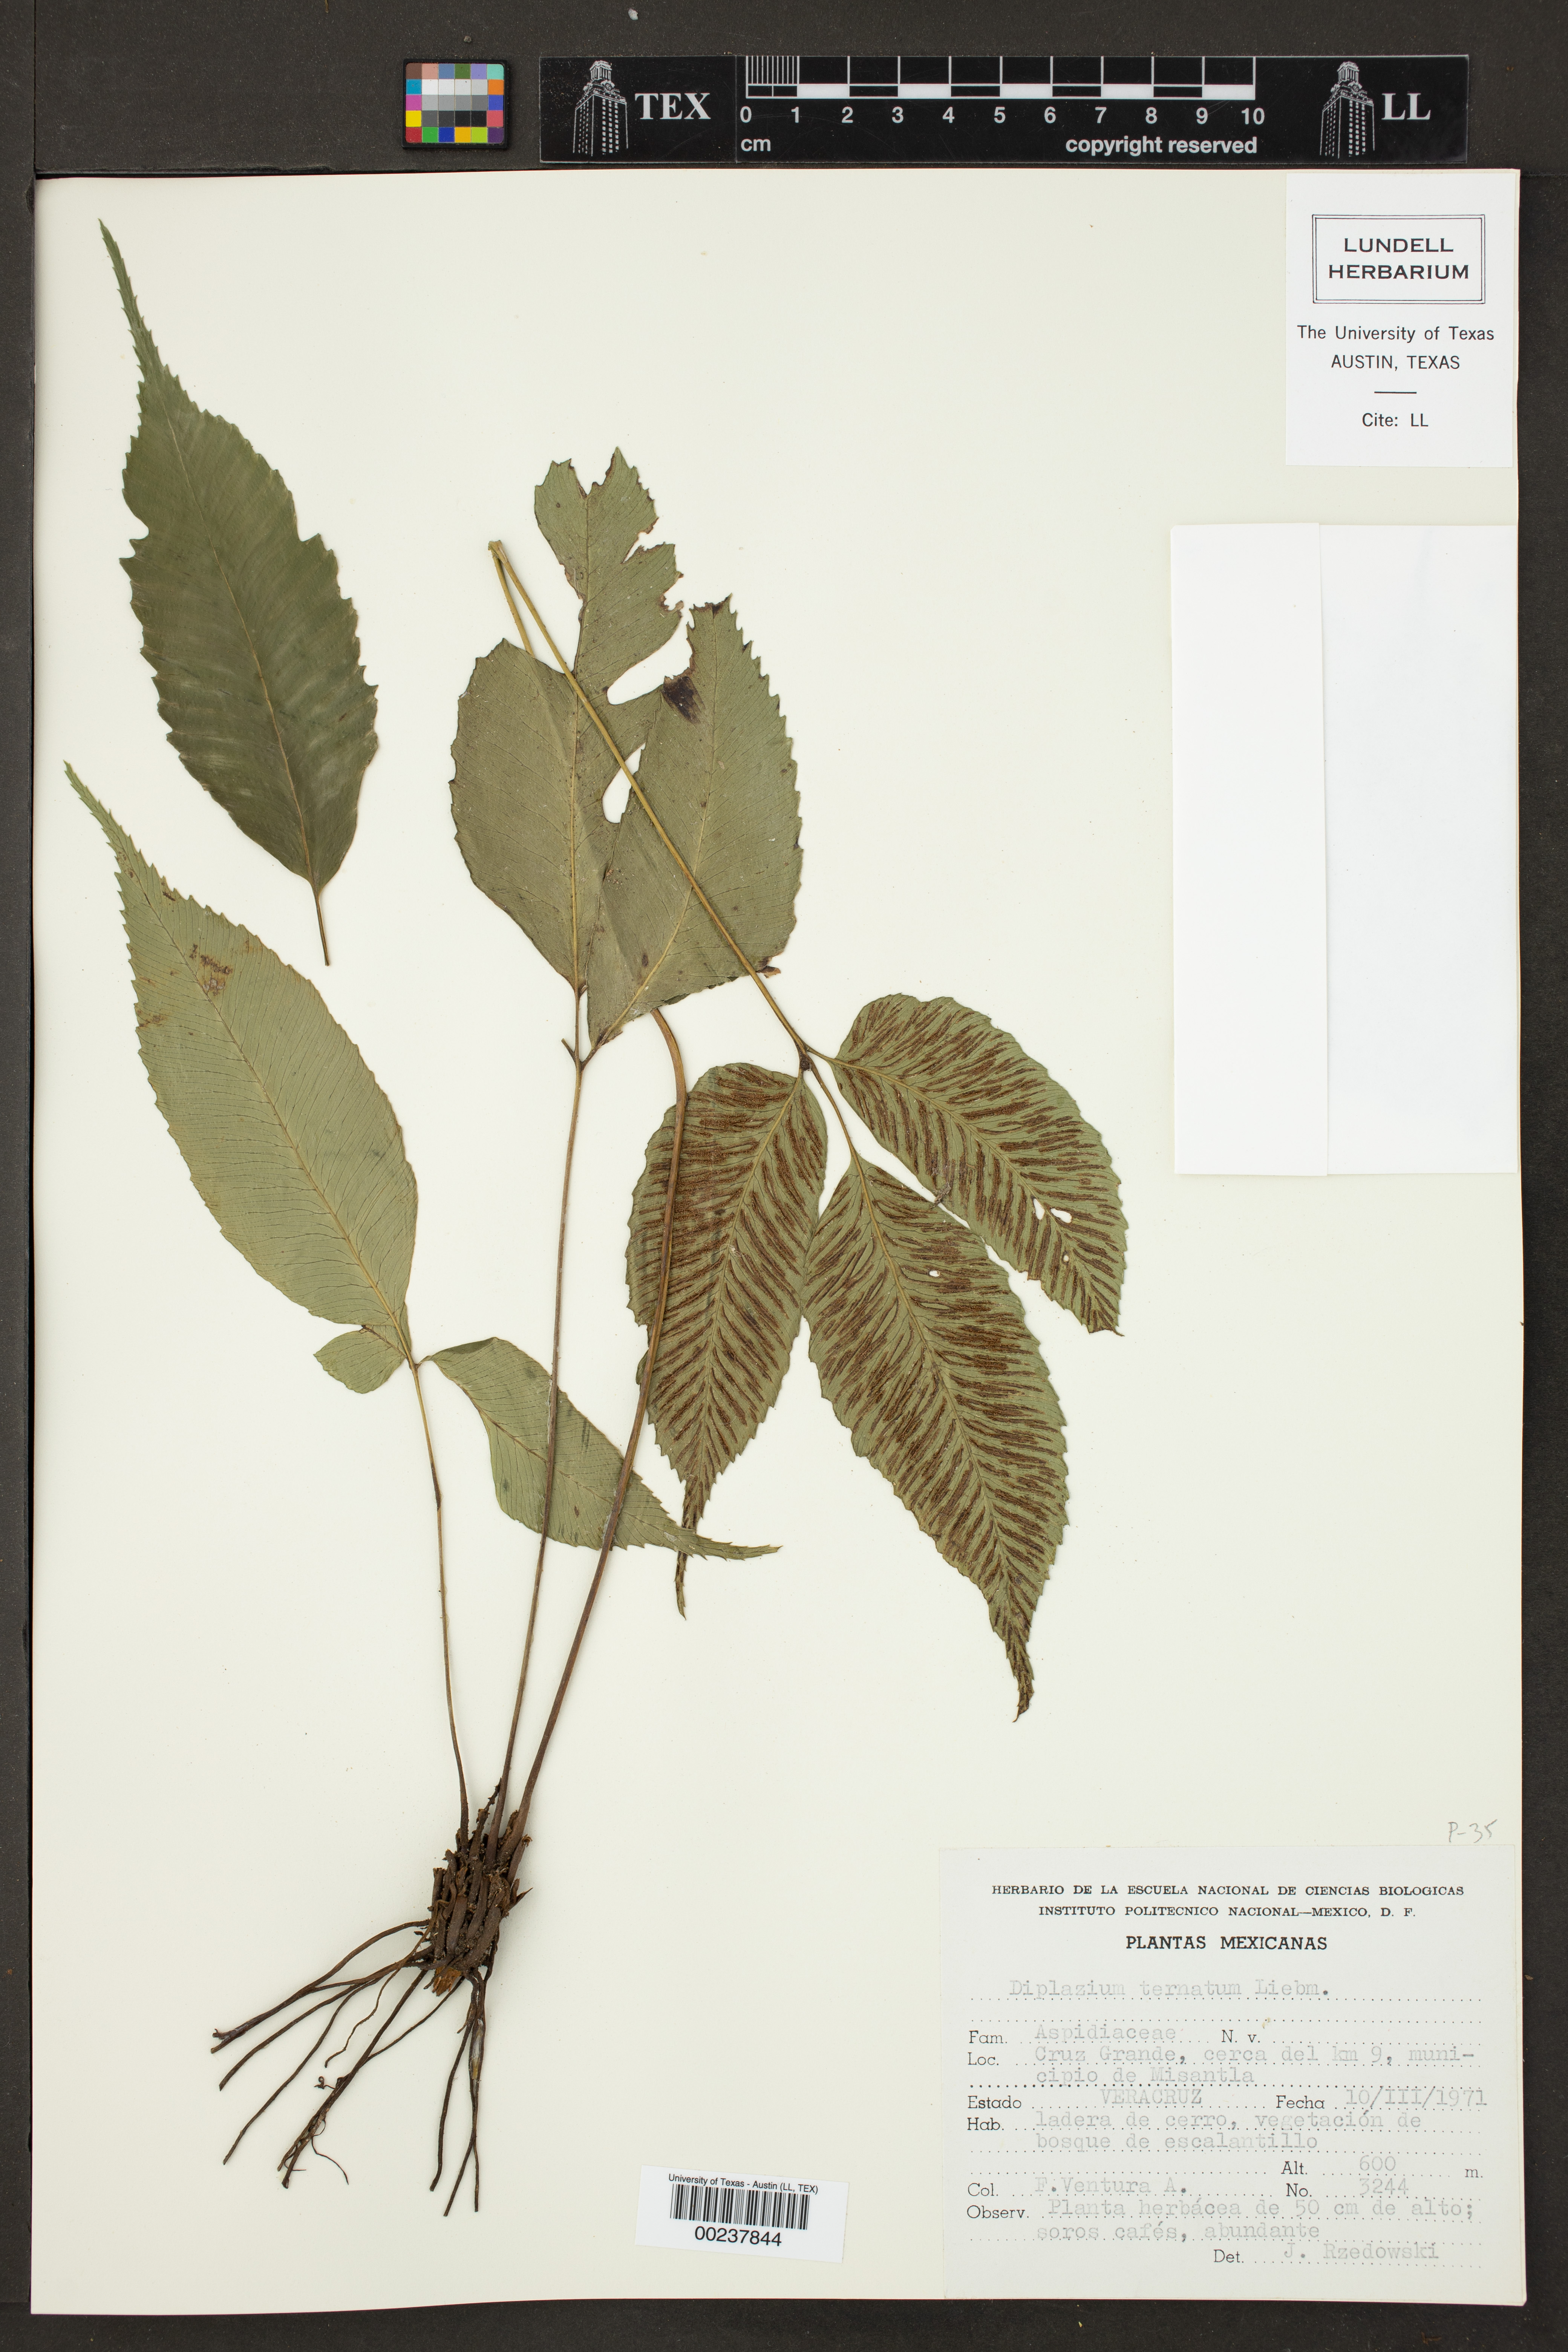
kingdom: Plantae
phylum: Tracheophyta
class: Polypodiopsida
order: Polypodiales
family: Athyriaceae
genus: Diplazium
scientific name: Diplazium ternatum
